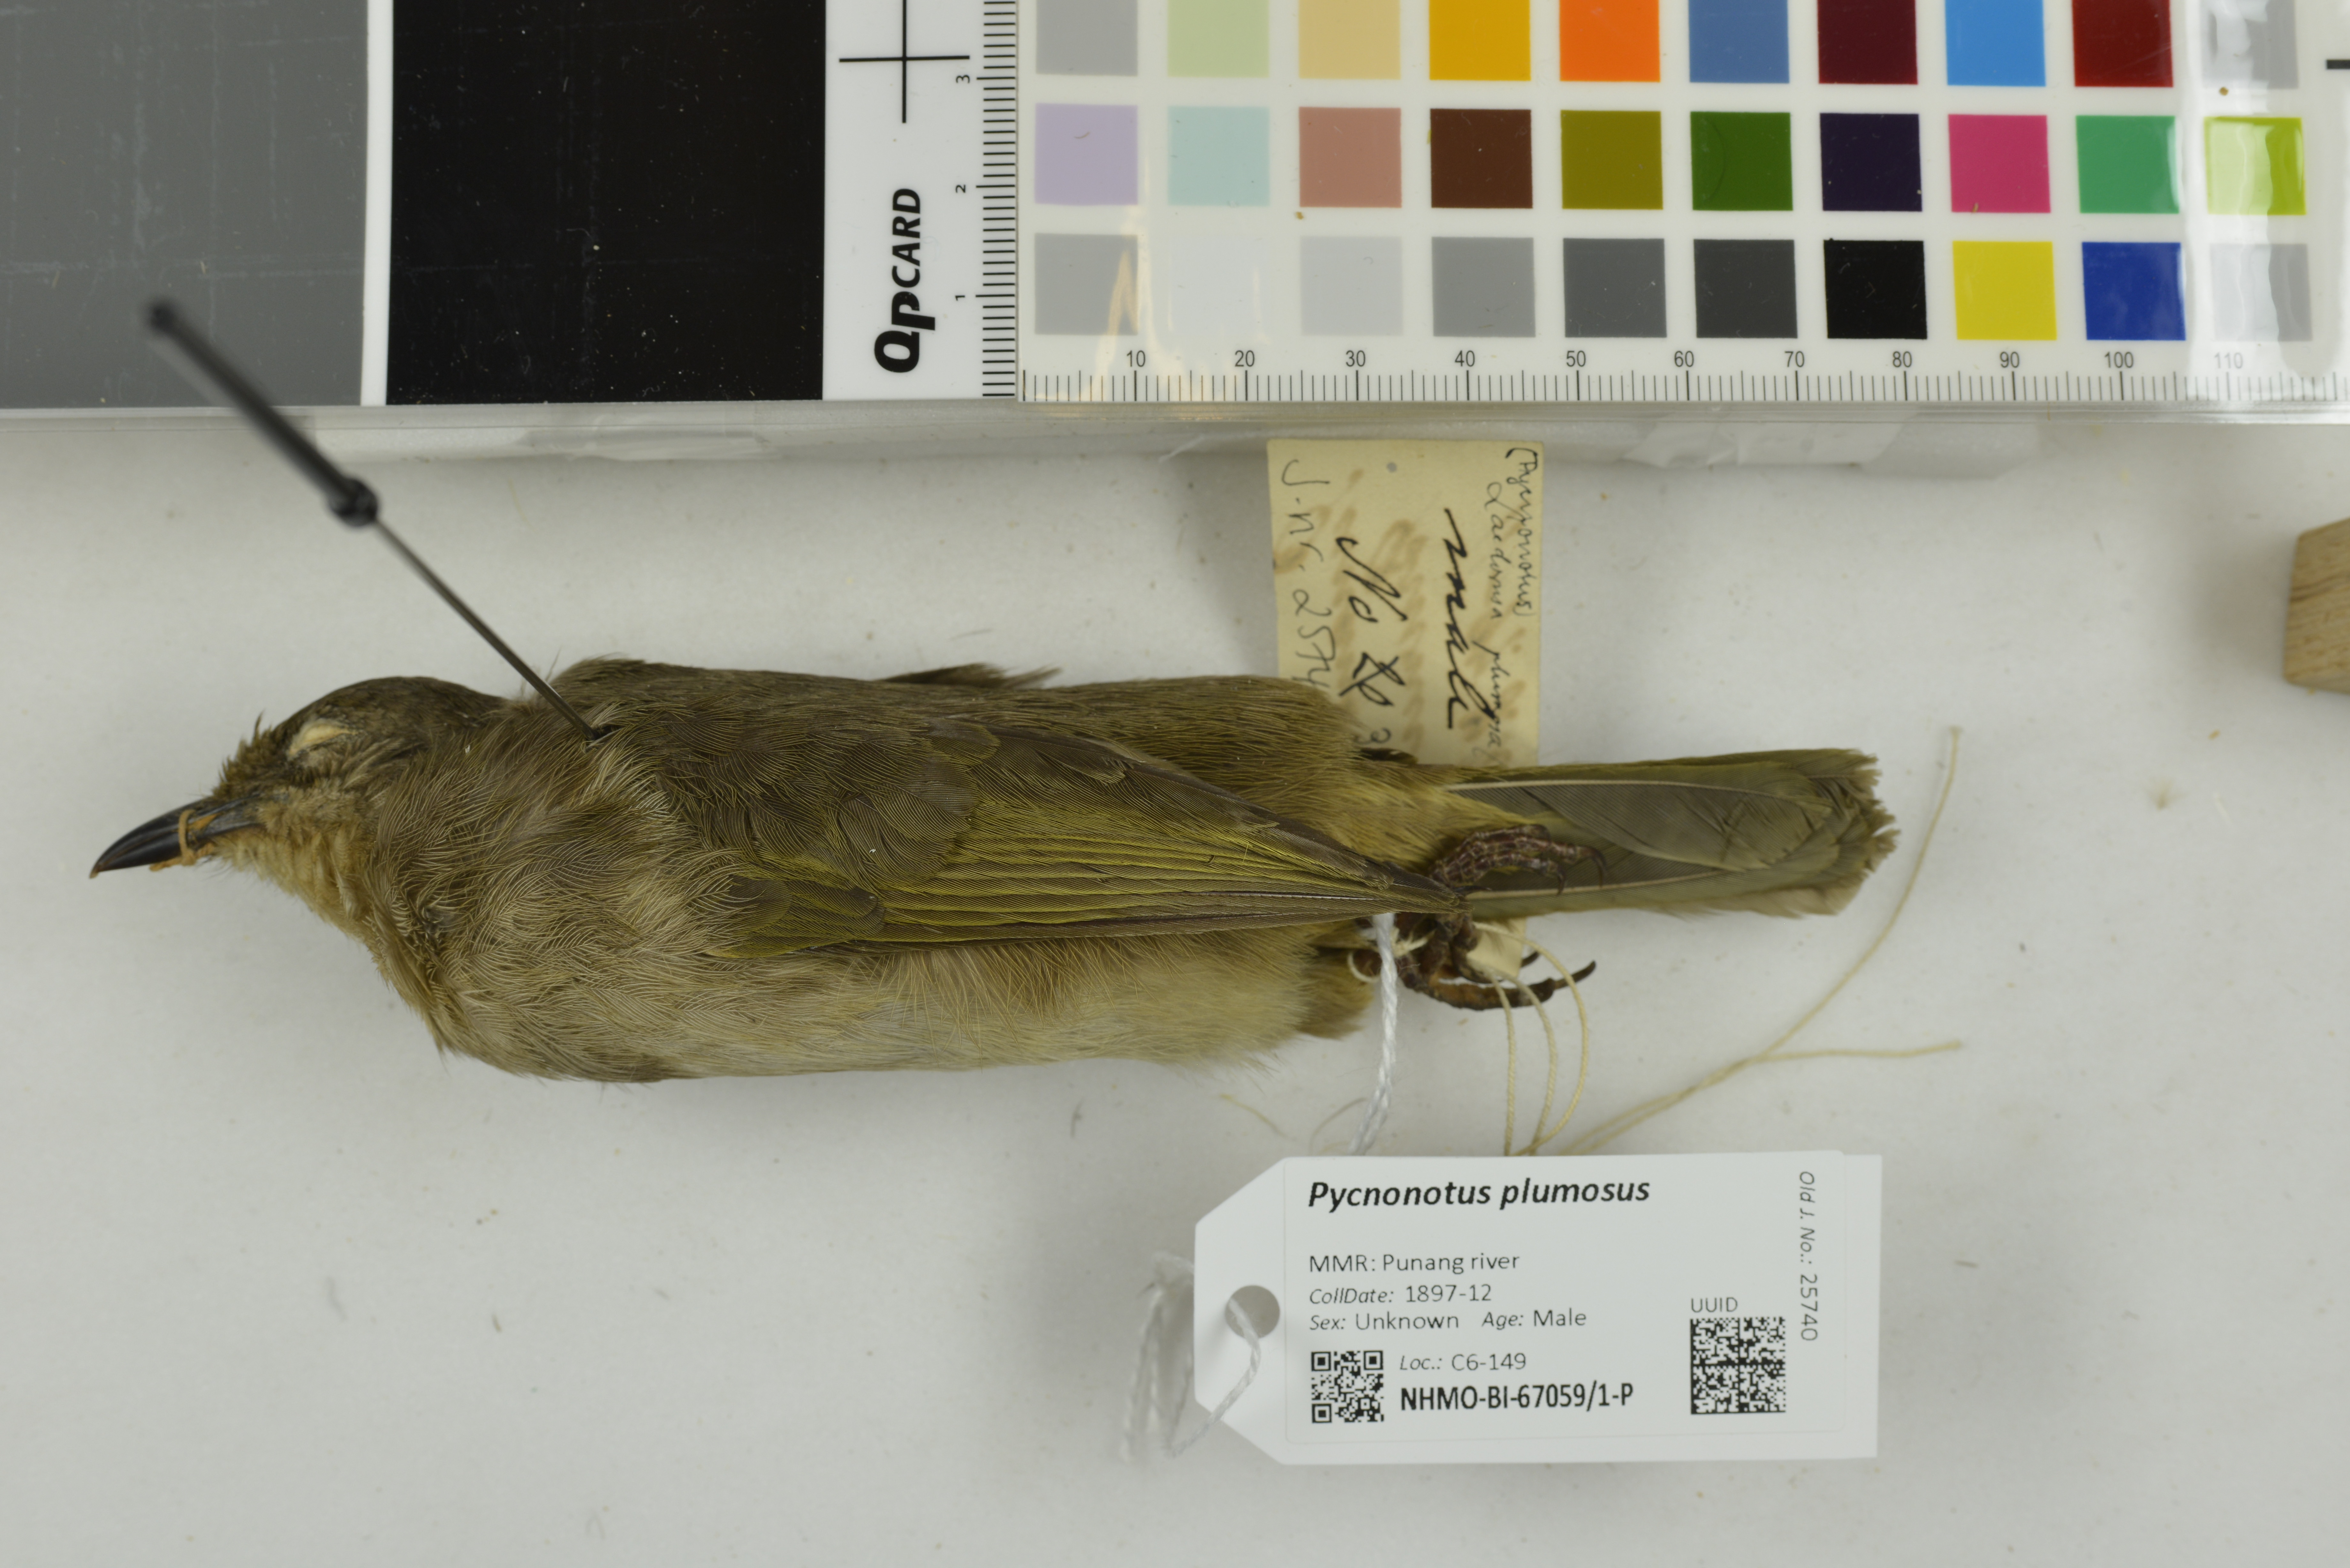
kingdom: Animalia
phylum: Chordata
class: Aves
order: Passeriformes
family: Pycnonotidae
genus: Pycnonotus
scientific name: Pycnonotus plumosus
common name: Olive-winged bulbul
